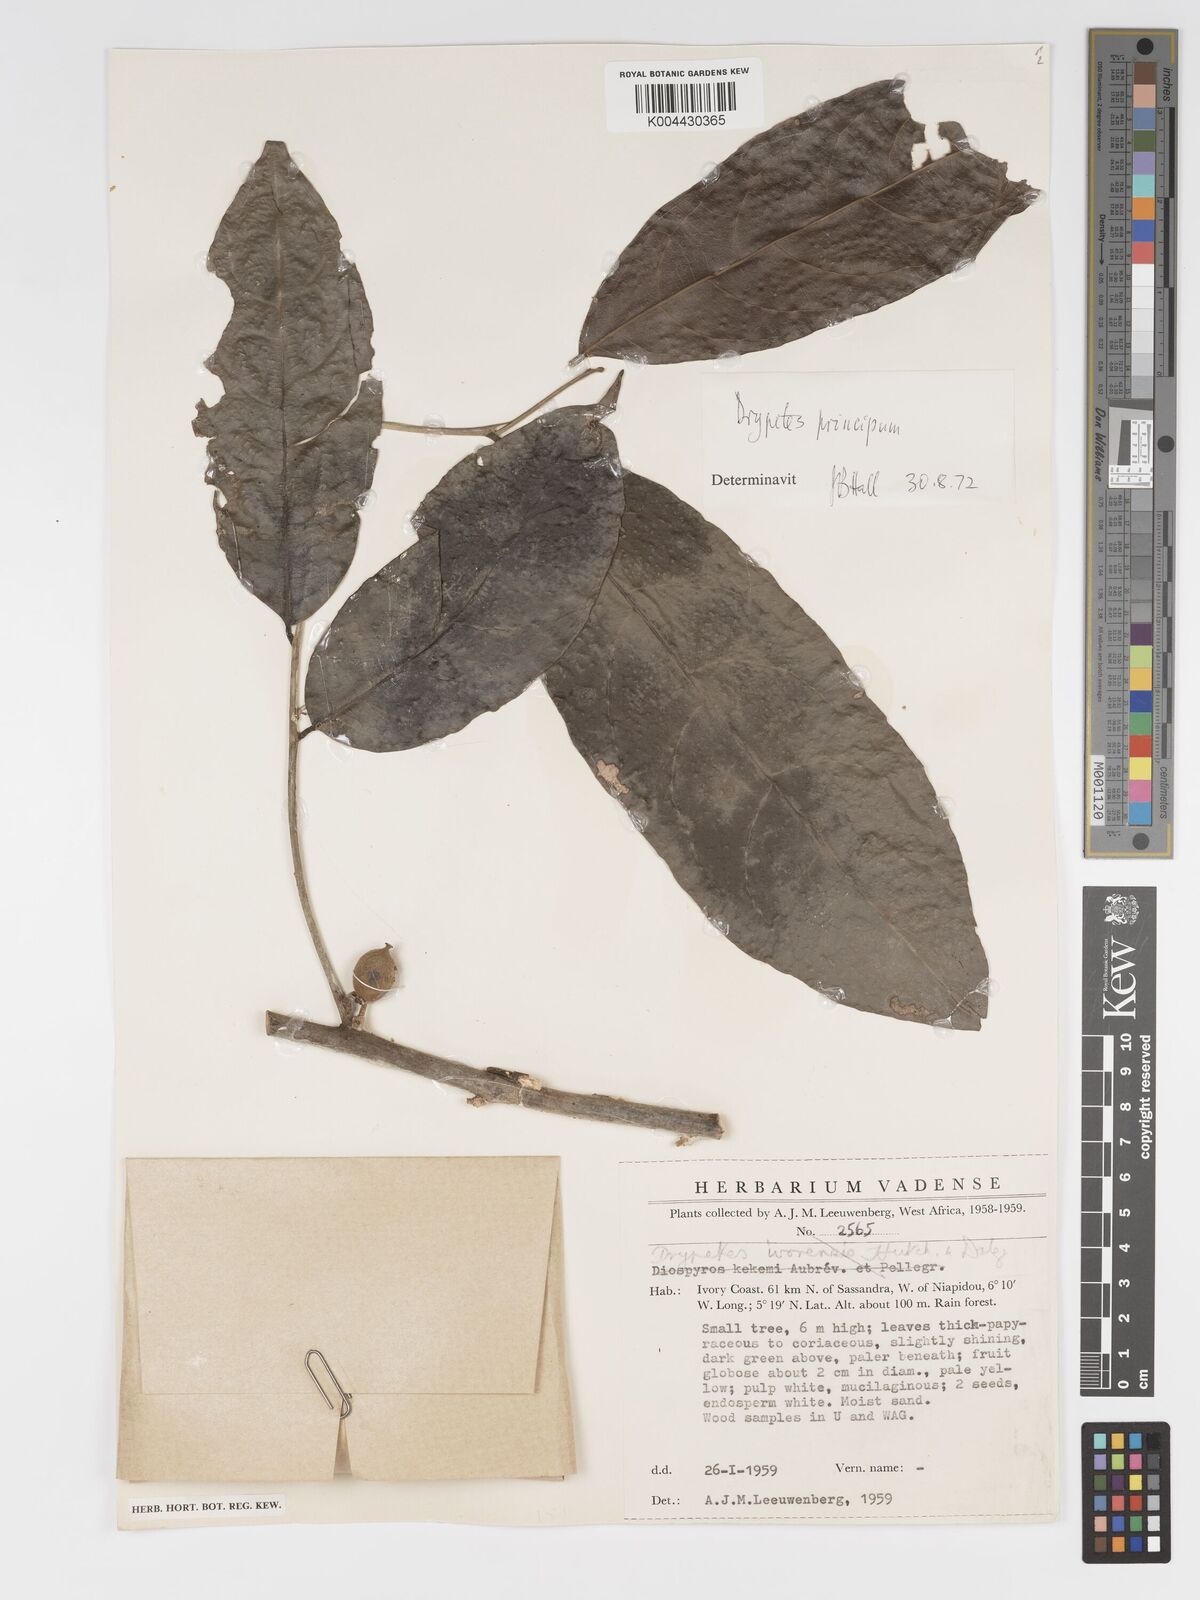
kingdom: Plantae
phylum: Tracheophyta
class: Magnoliopsida
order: Malpighiales
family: Putranjivaceae
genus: Drypetes
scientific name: Drypetes principum
